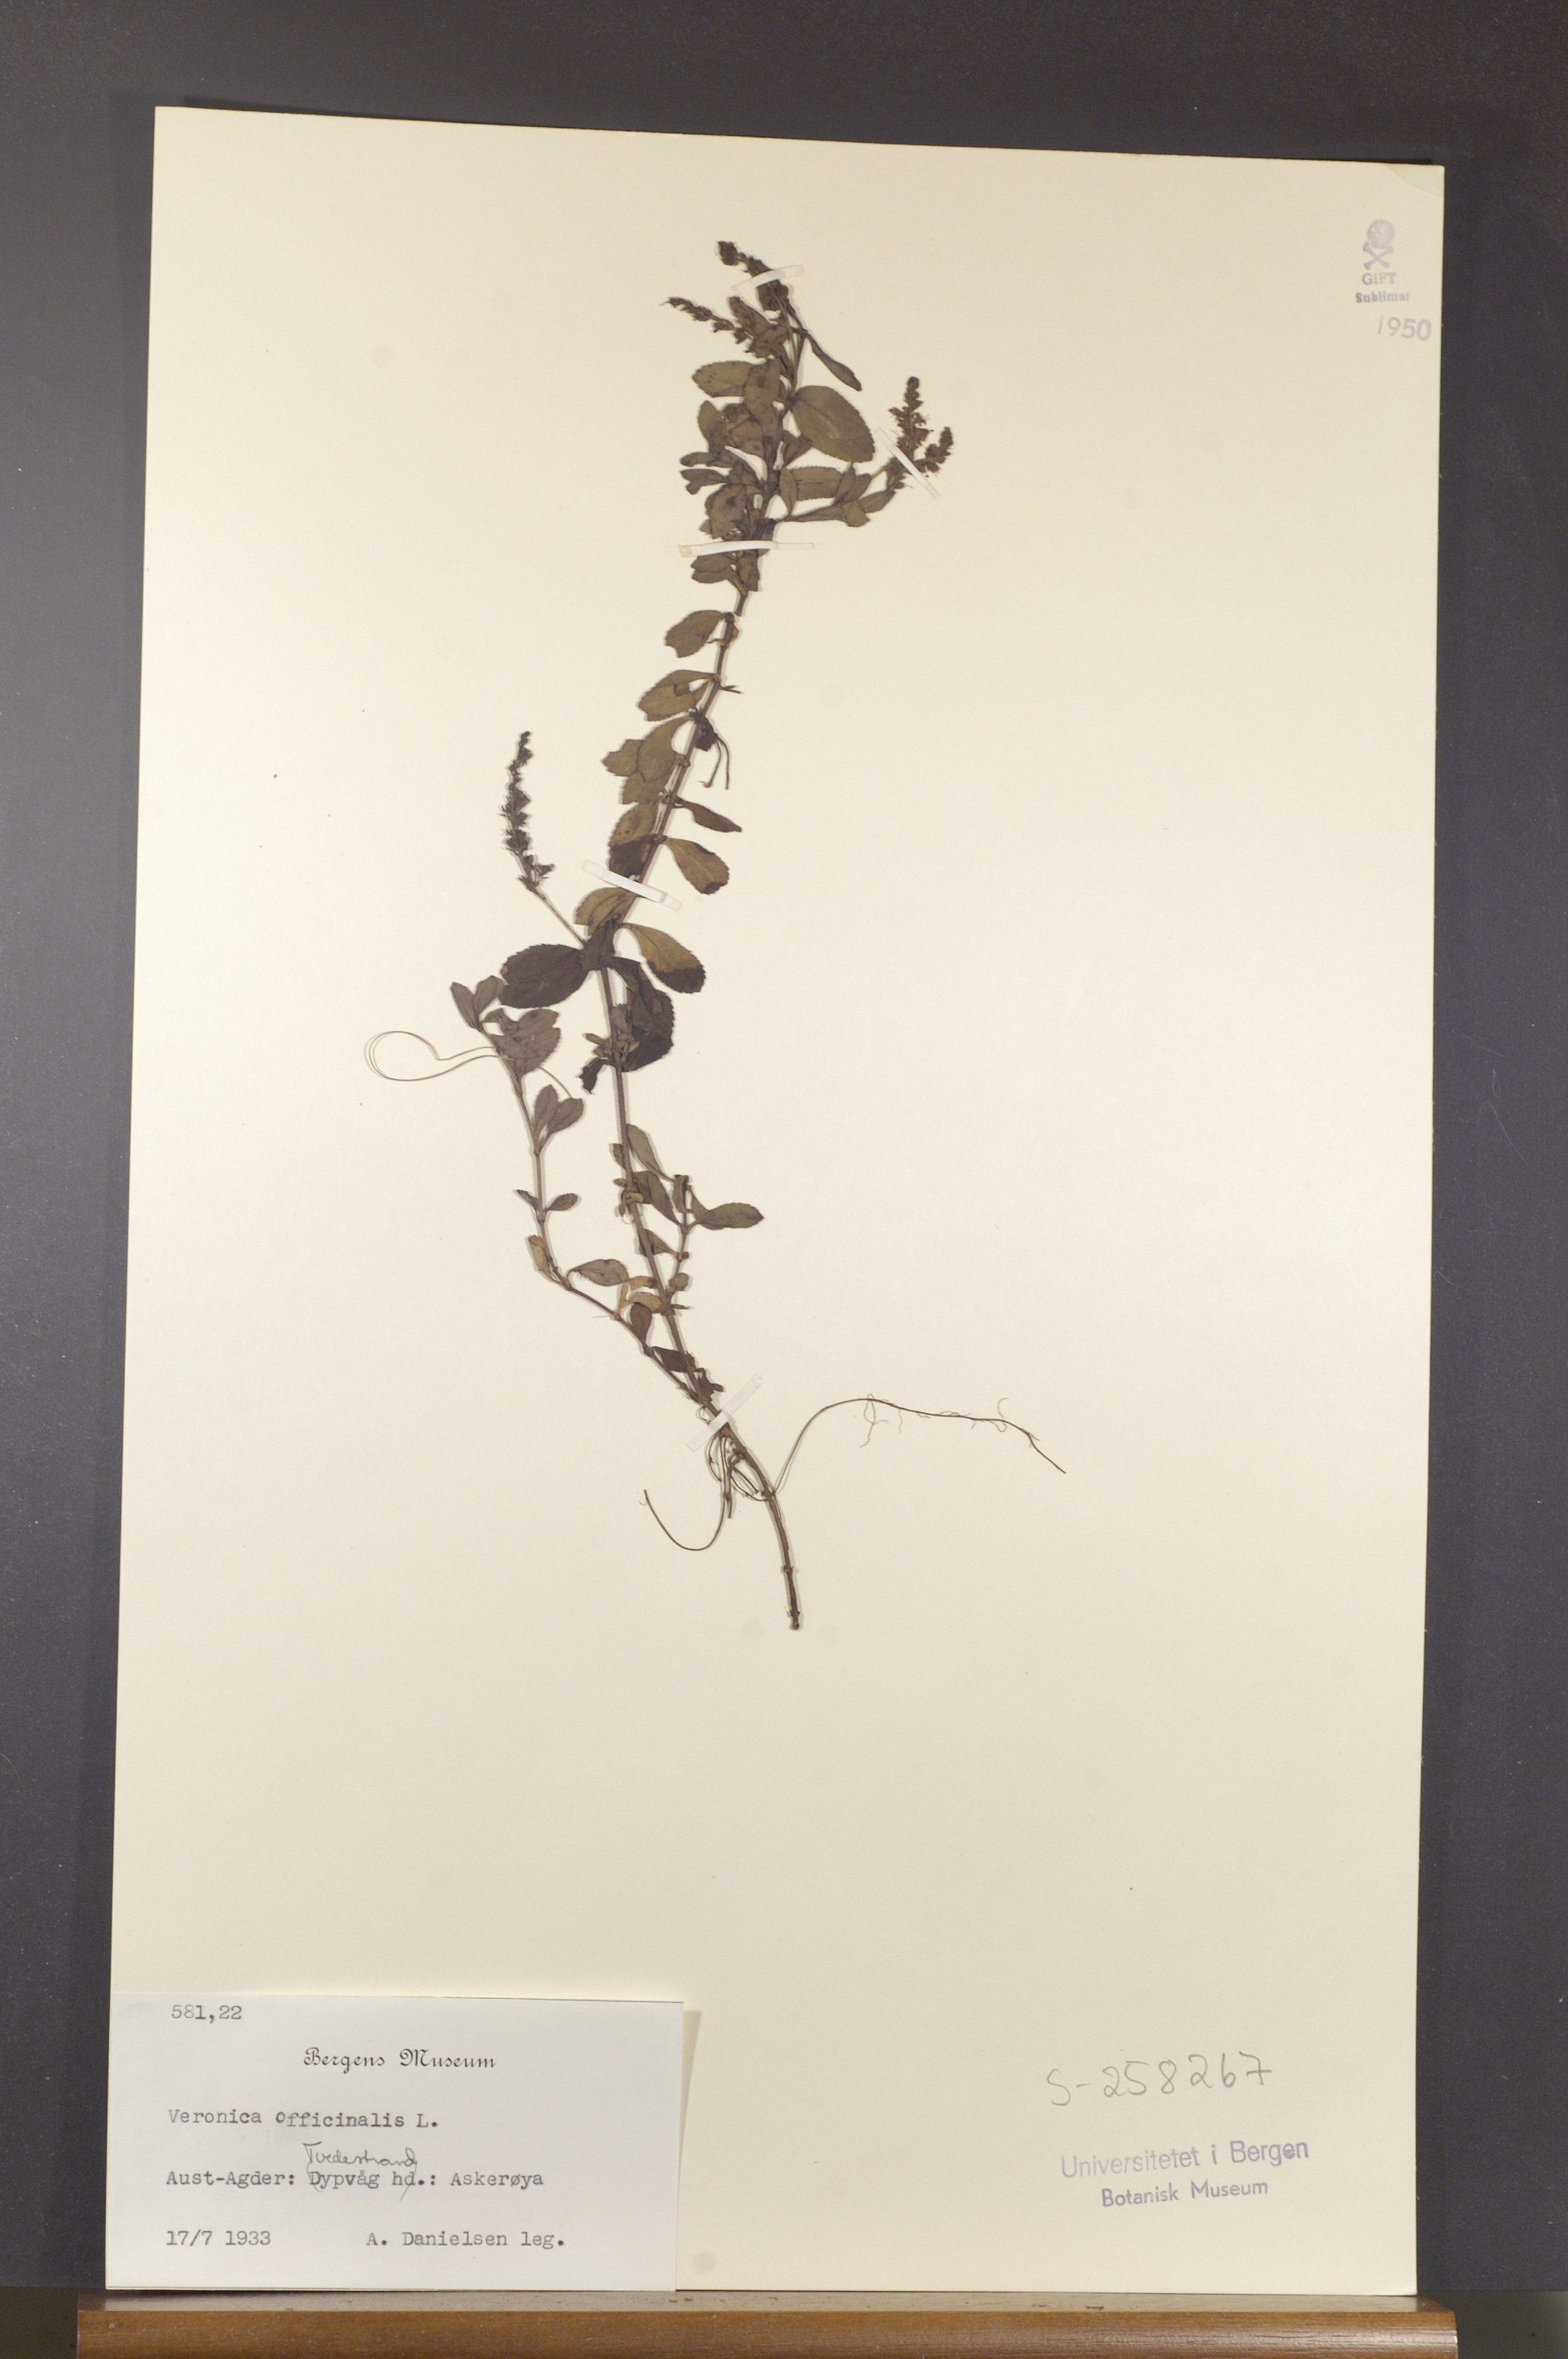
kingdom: Plantae
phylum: Tracheophyta
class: Magnoliopsida
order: Lamiales
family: Plantaginaceae
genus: Veronica
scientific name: Veronica officinalis
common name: Common speedwell
